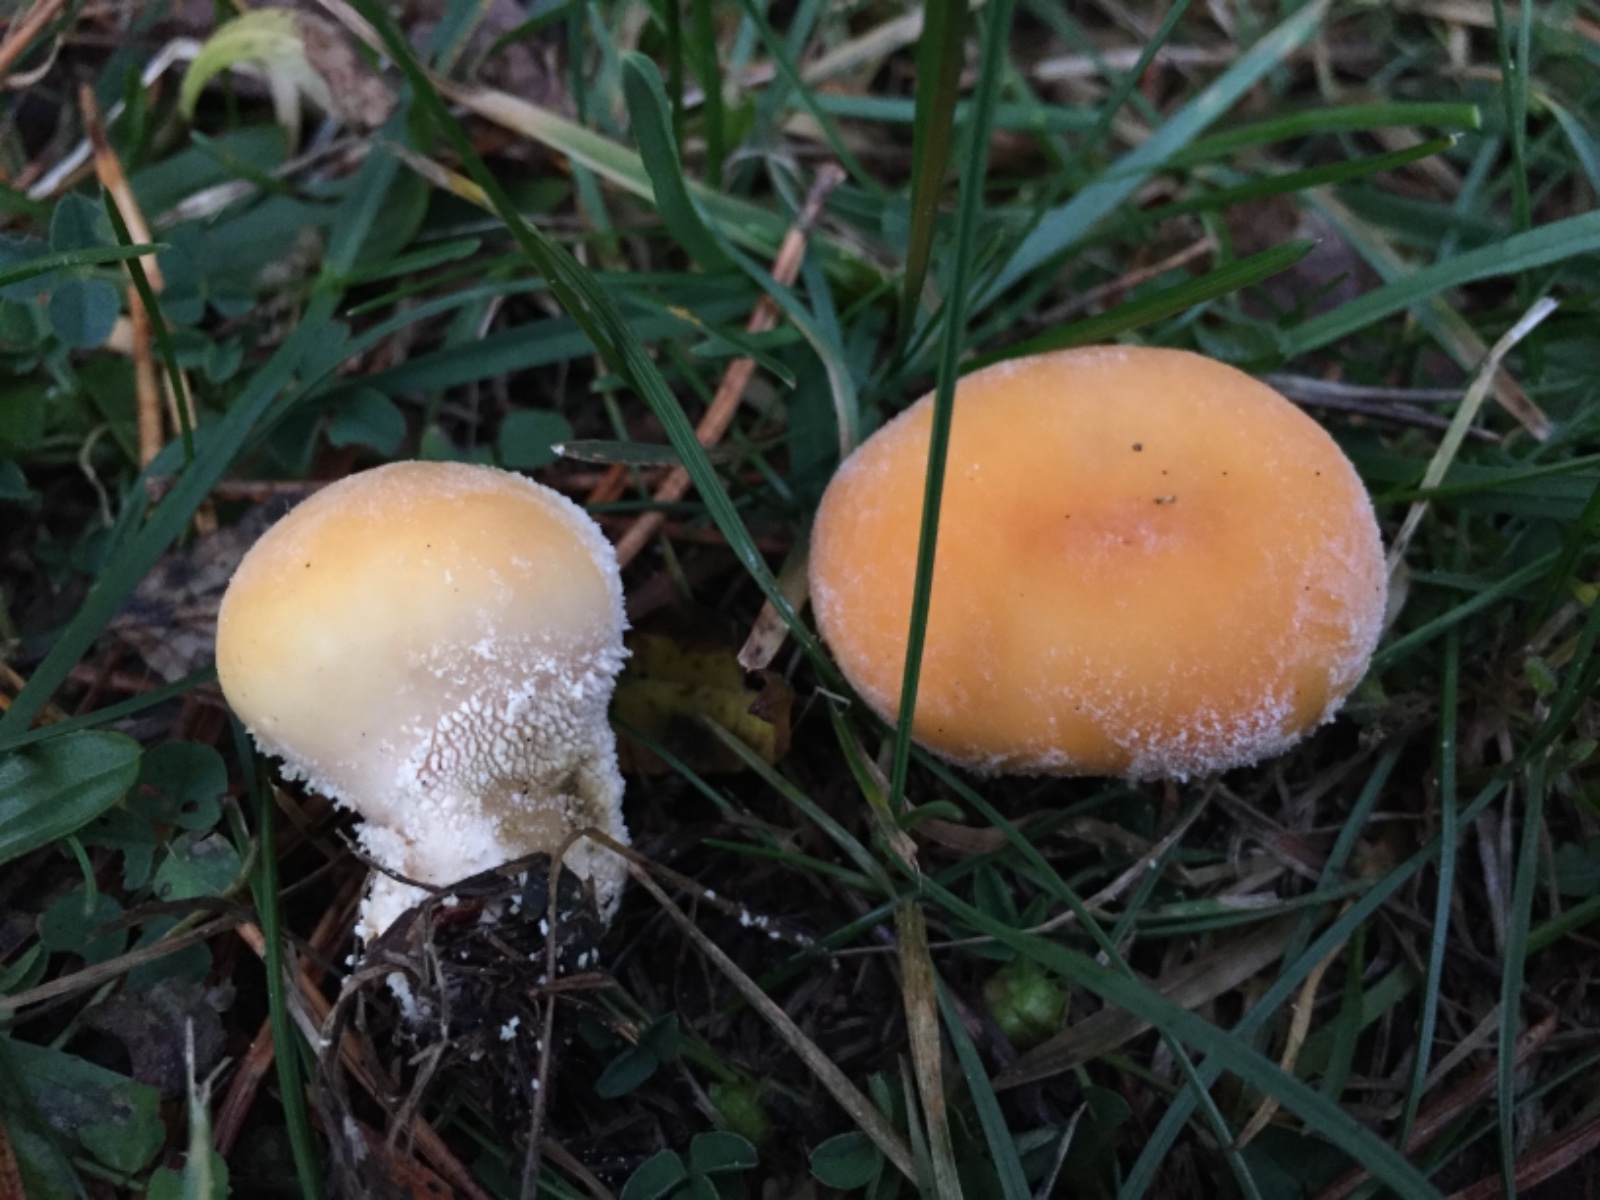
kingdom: Fungi
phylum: Basidiomycota
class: Agaricomycetes
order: Agaricales
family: Lycoperdaceae
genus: Lycoperdon
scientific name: Lycoperdon pratense
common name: flad støvbold
